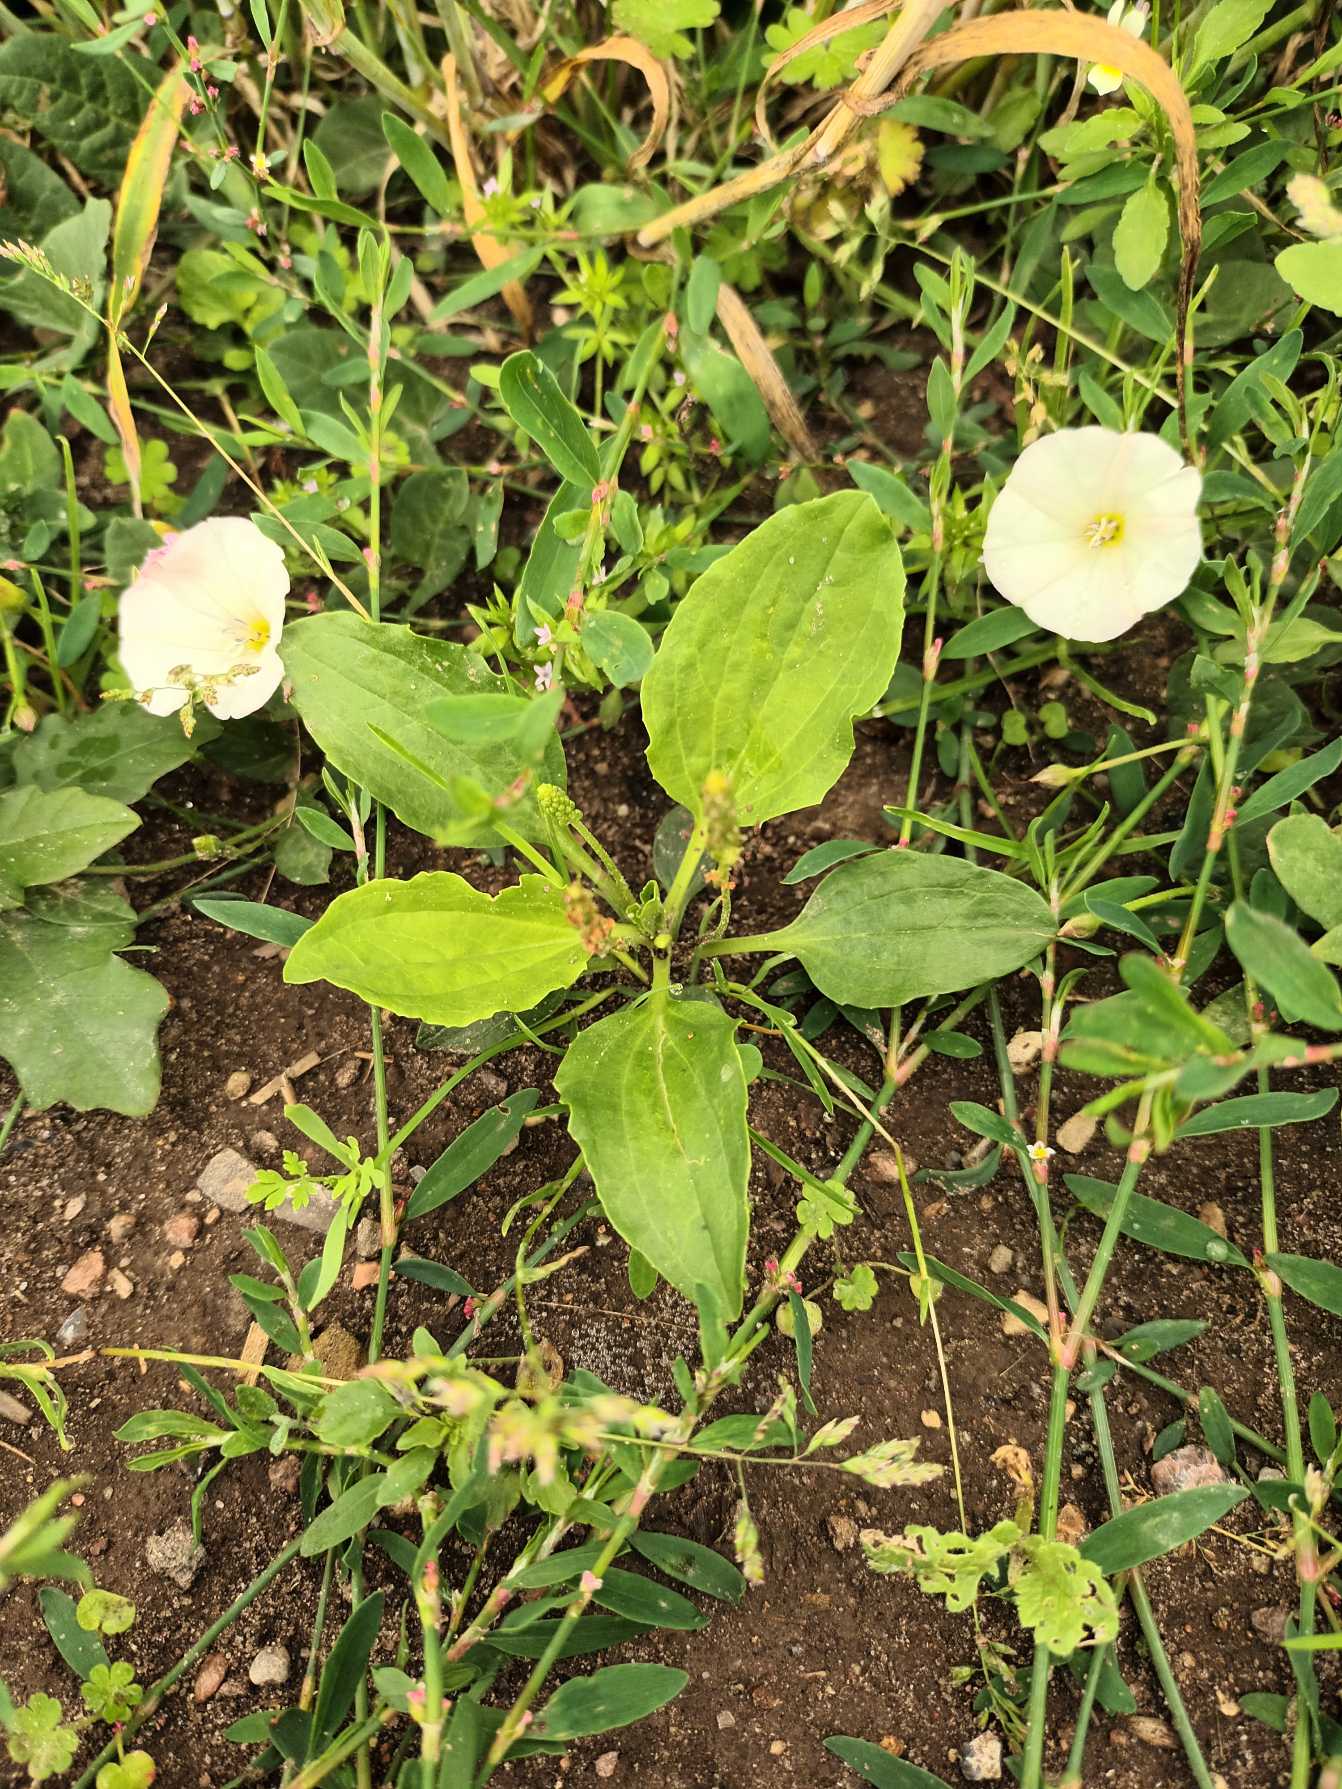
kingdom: Plantae
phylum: Tracheophyta
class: Magnoliopsida
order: Lamiales
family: Plantaginaceae
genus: Plantago
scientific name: Plantago major
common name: Glat vejbred
